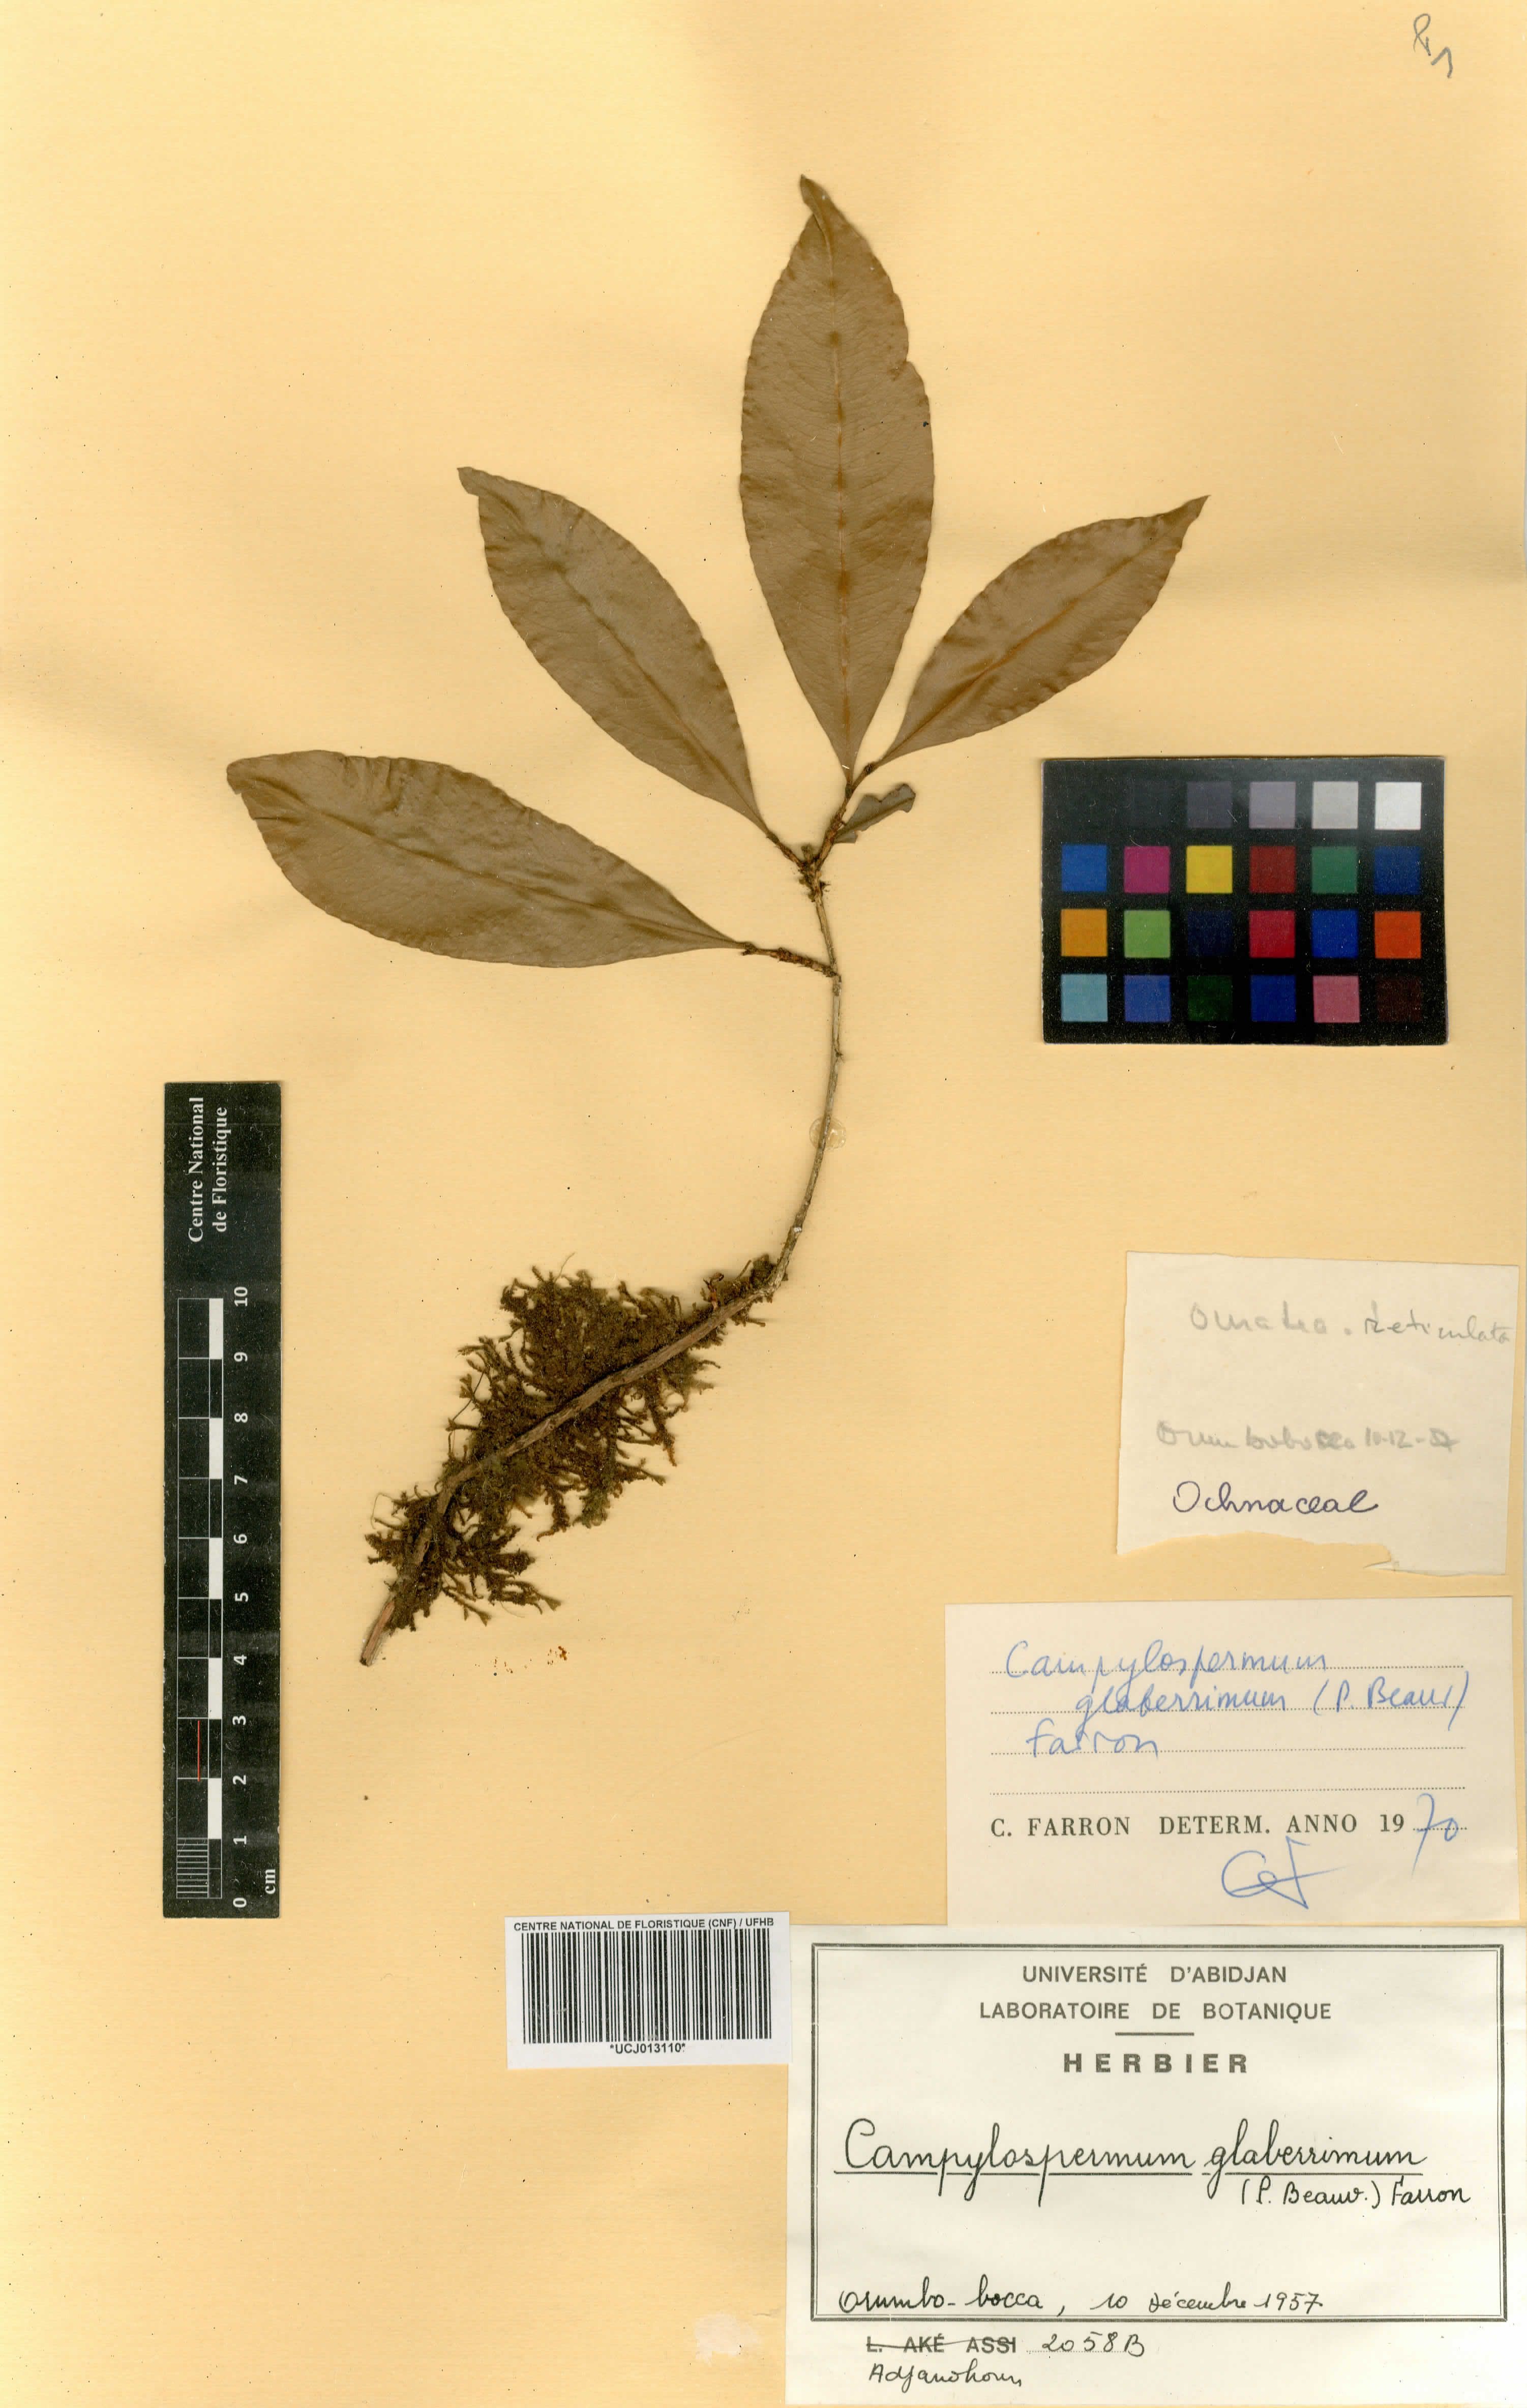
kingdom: Plantae
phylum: Tracheophyta
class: Magnoliopsida
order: Malpighiales
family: Ochnaceae
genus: Campylospermum
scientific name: Campylospermum glaberrimum
